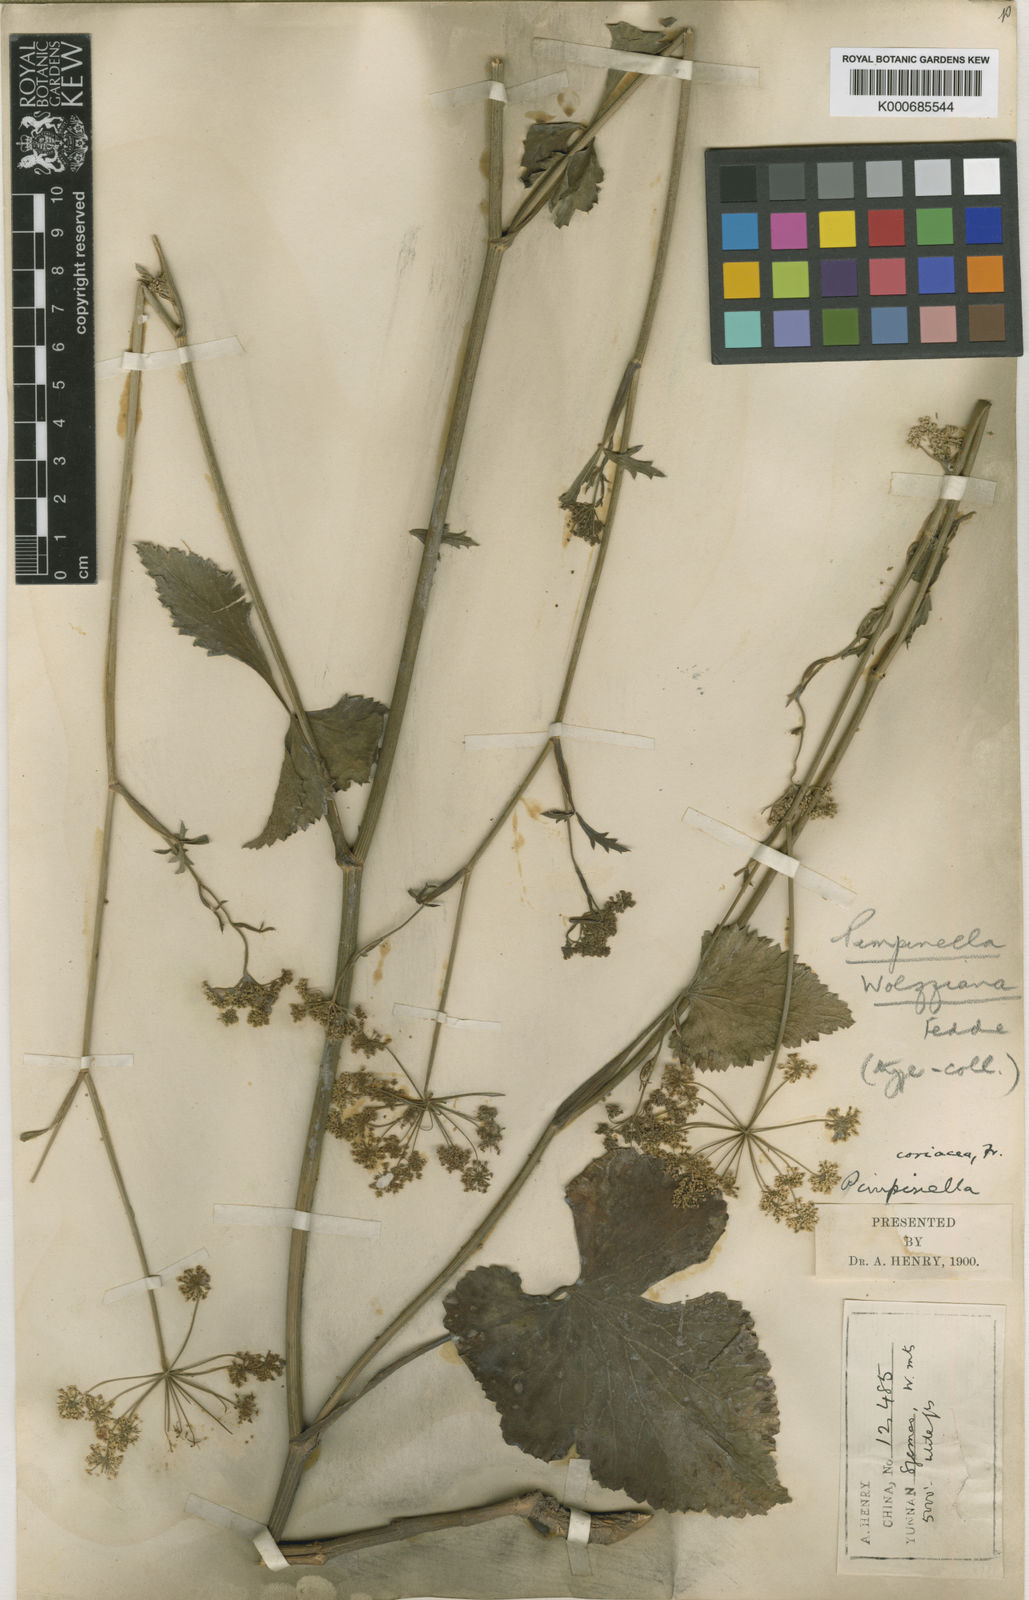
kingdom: Plantae
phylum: Tracheophyta
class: Magnoliopsida
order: Apiales
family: Apiaceae
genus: Pimpinella
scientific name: Pimpinella
